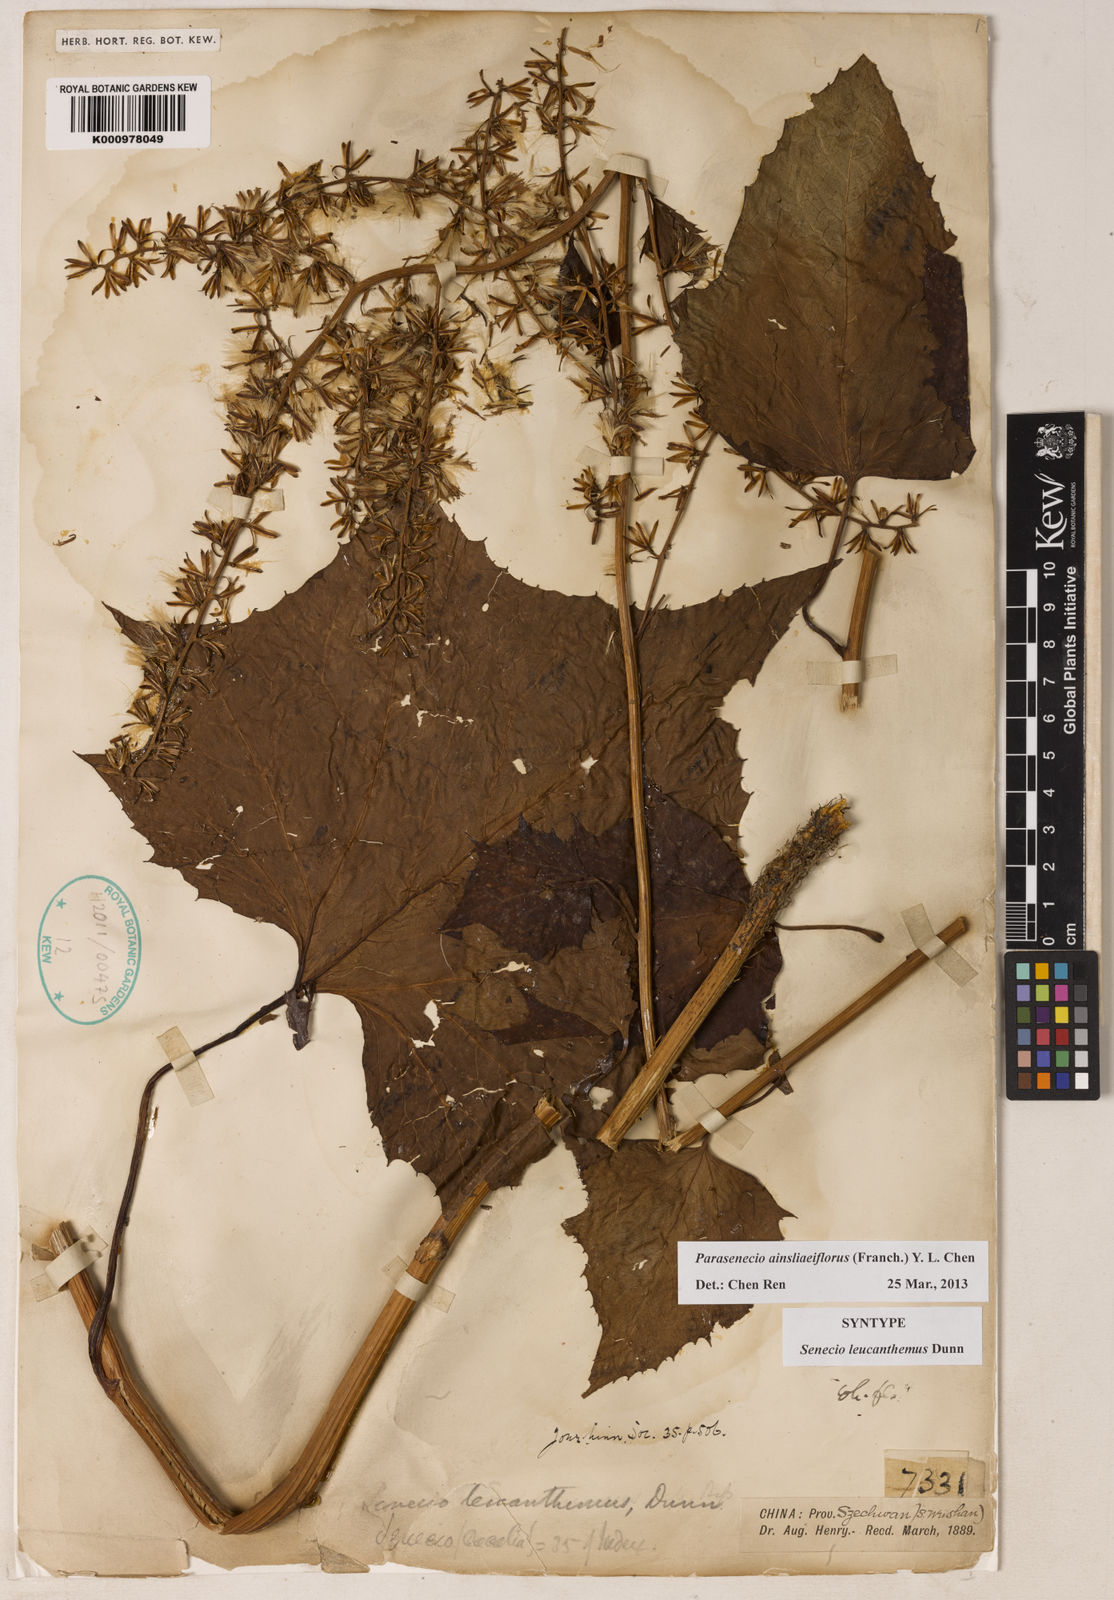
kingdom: Plantae
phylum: Tracheophyta
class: Magnoliopsida
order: Asterales
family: Asteraceae
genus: Parasenecio
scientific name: Parasenecio
